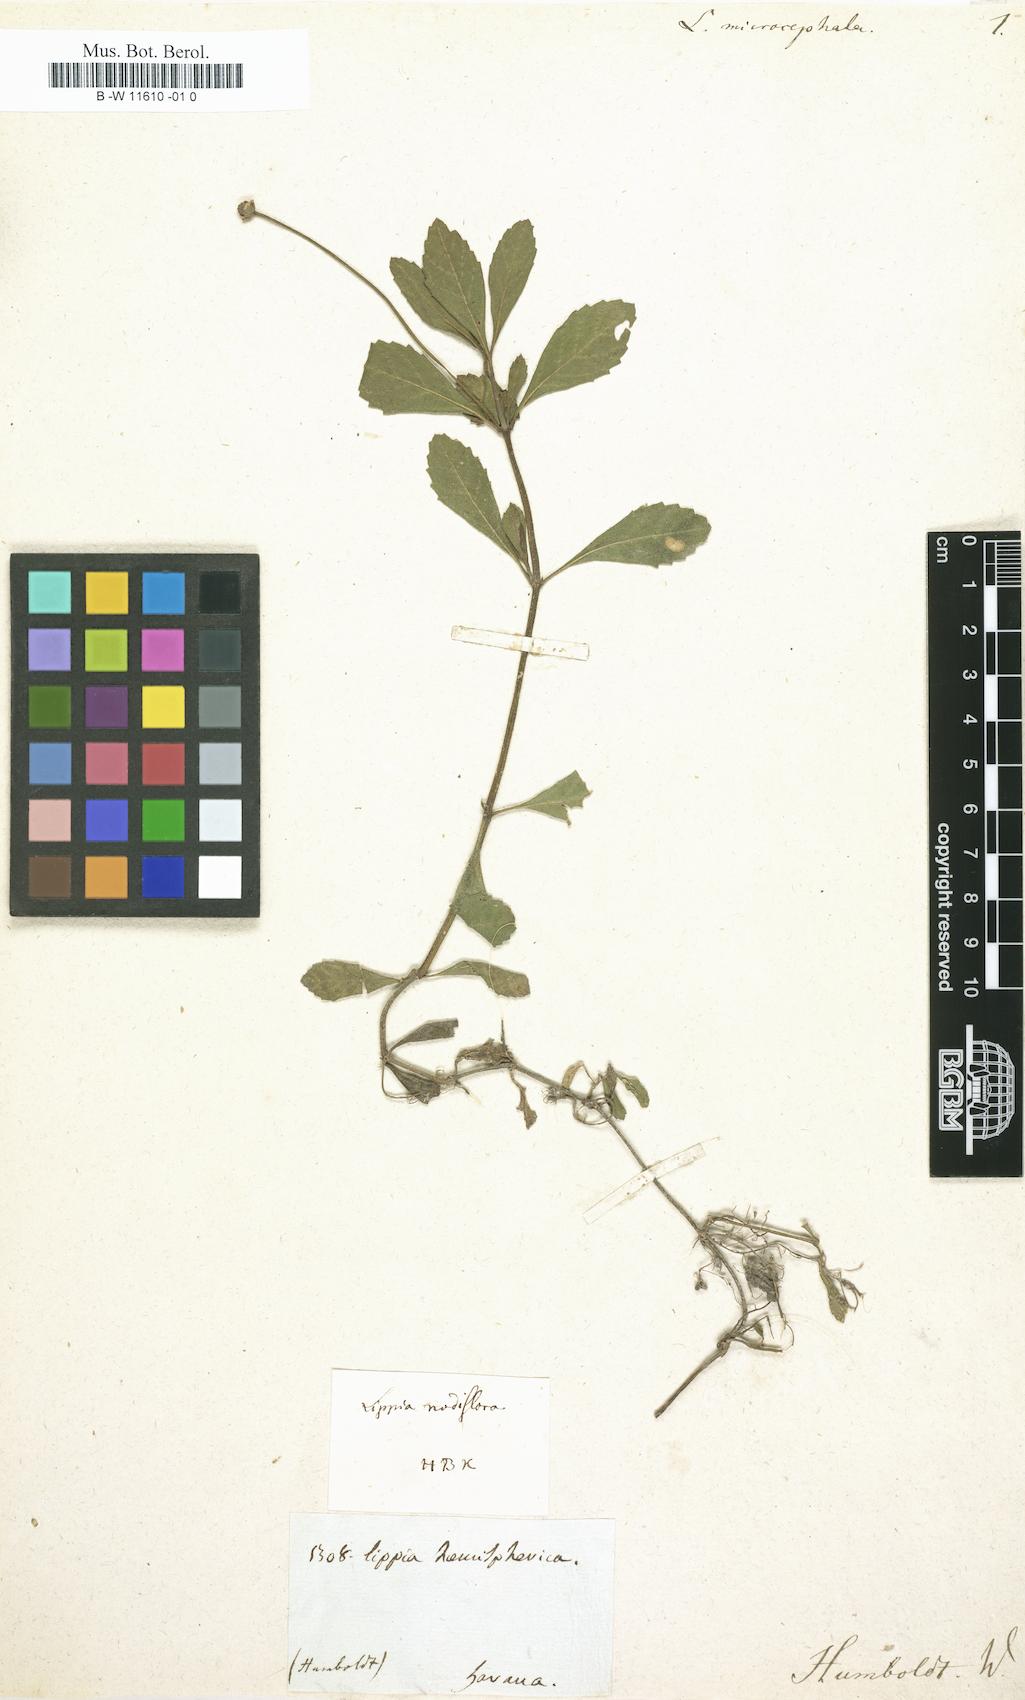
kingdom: Plantae
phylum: Tracheophyta
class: Magnoliopsida
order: Lamiales
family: Verbenaceae
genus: Lippia
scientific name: Lippia hermannioides
